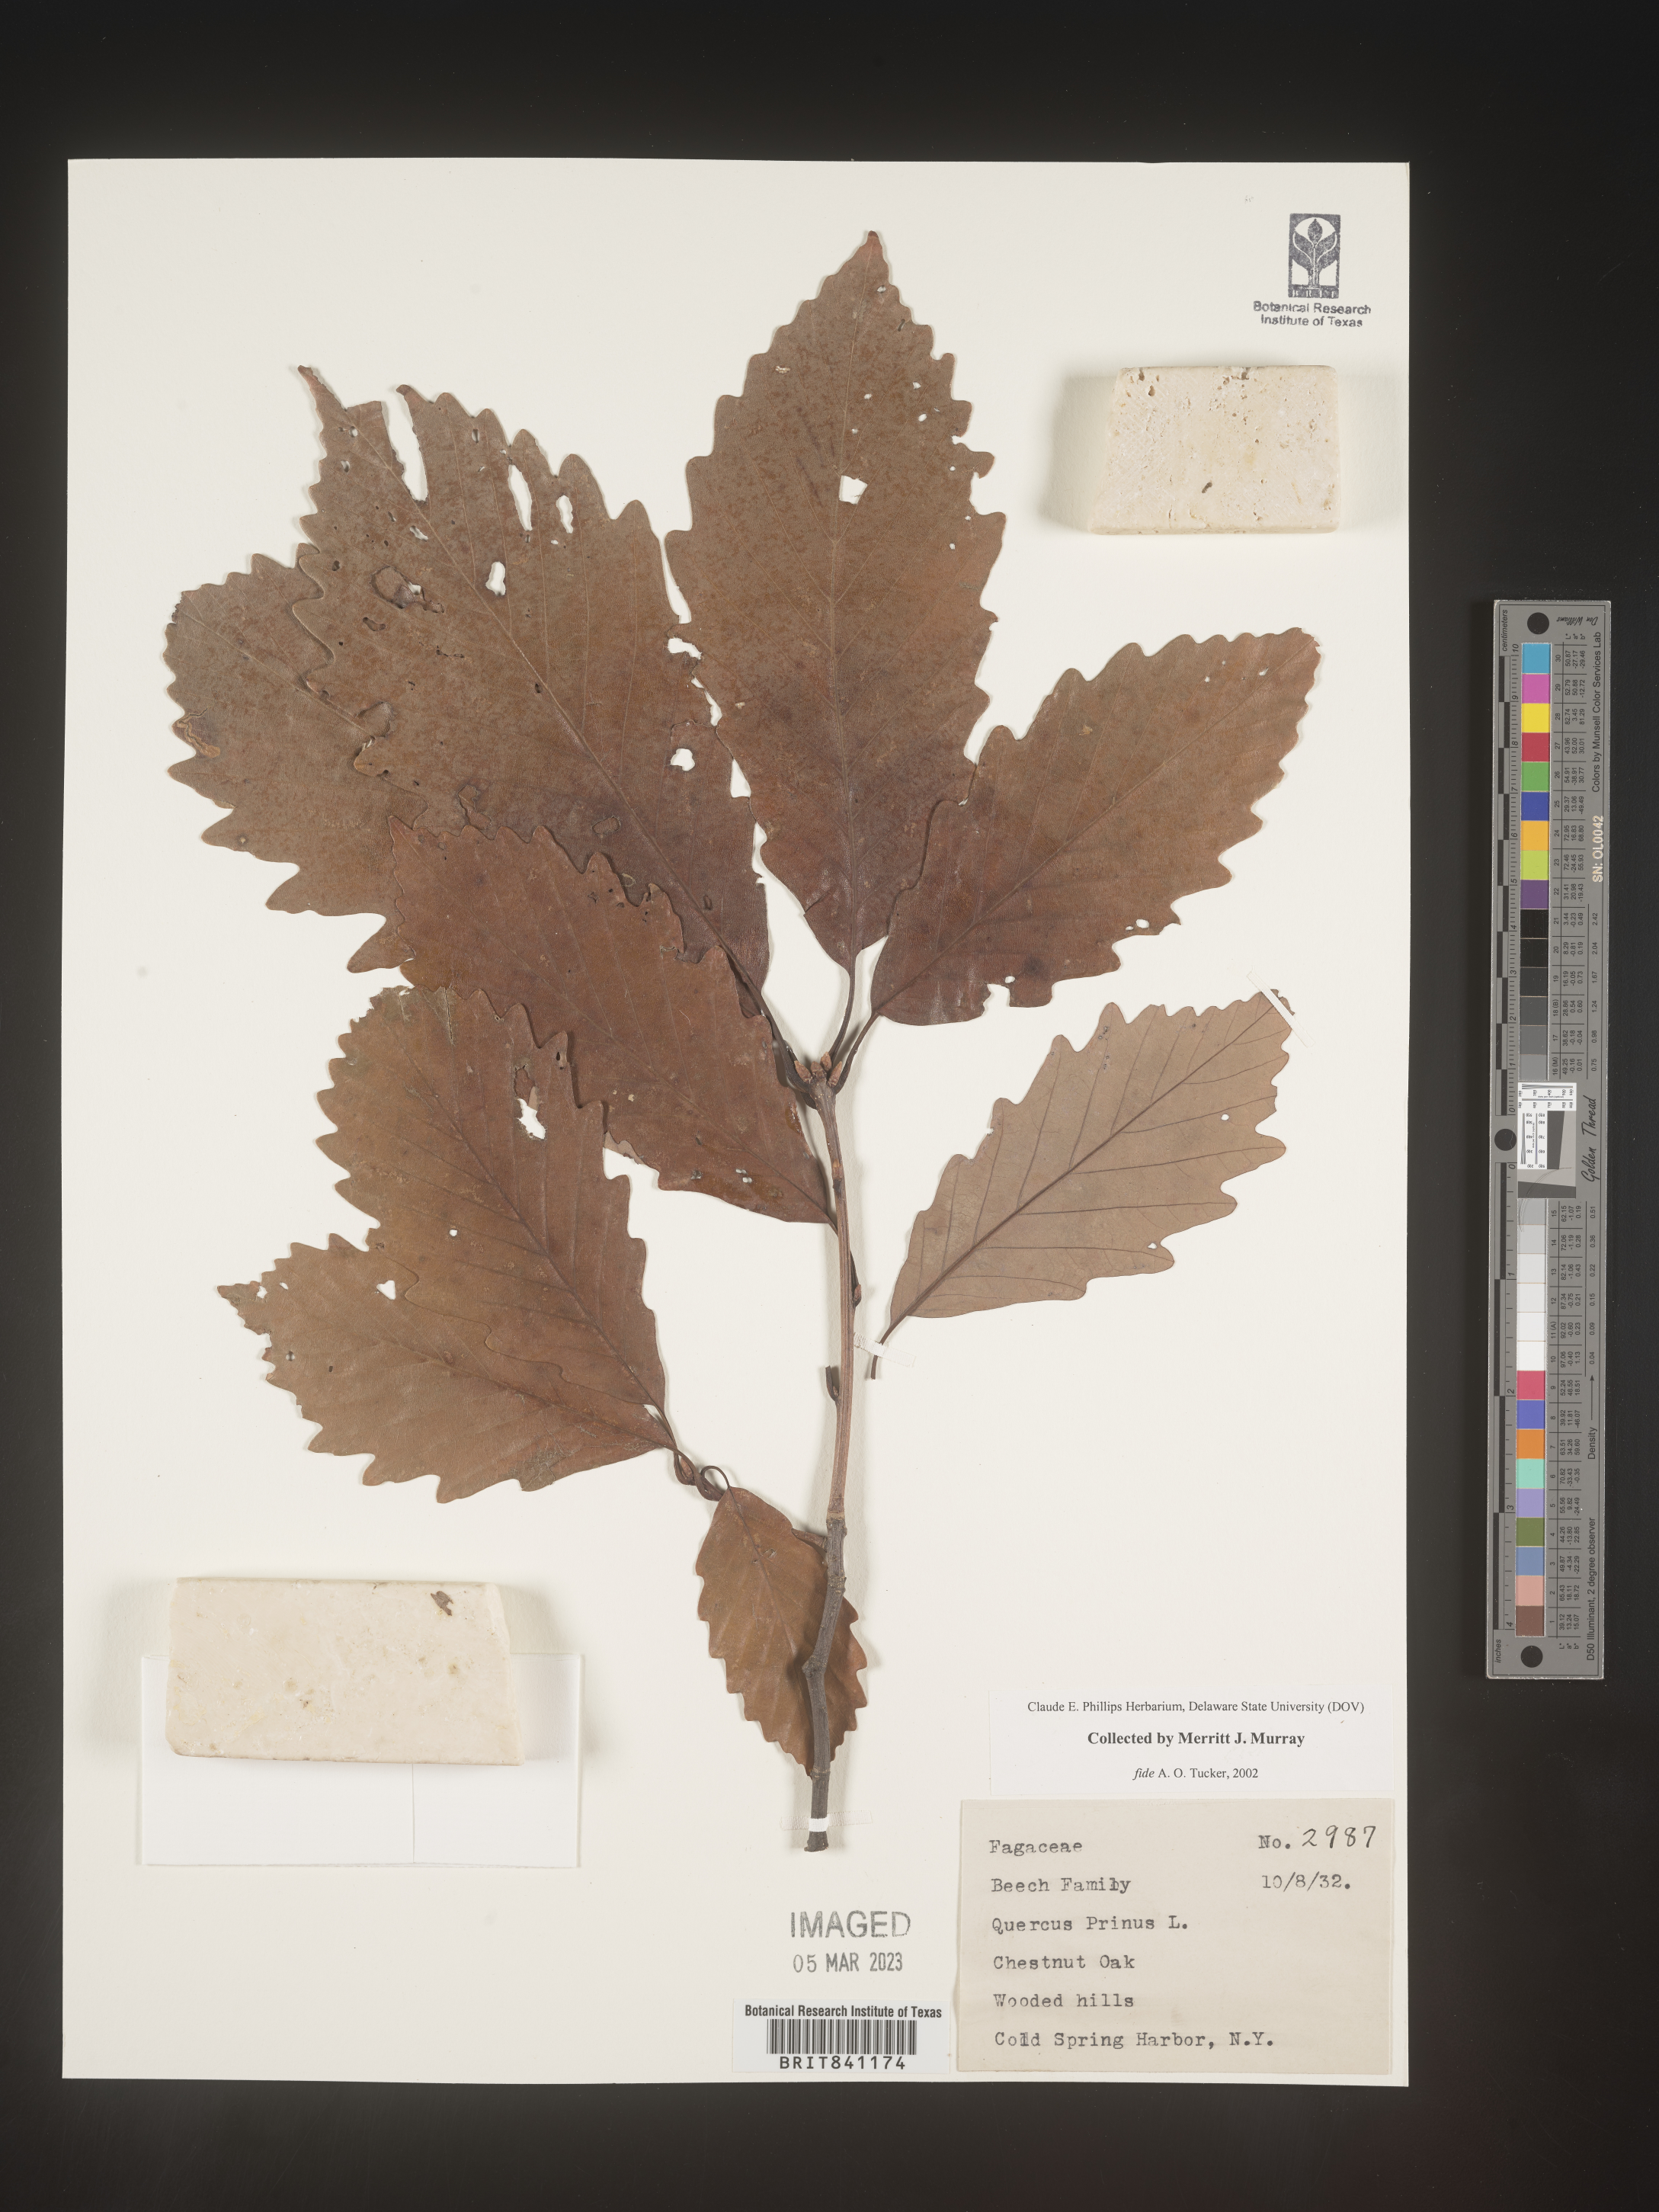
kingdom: Plantae
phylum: Tracheophyta
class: Magnoliopsida
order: Fagales
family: Fagaceae
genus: Quercus
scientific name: Quercus michauxii
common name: Swamp chestnut oak
